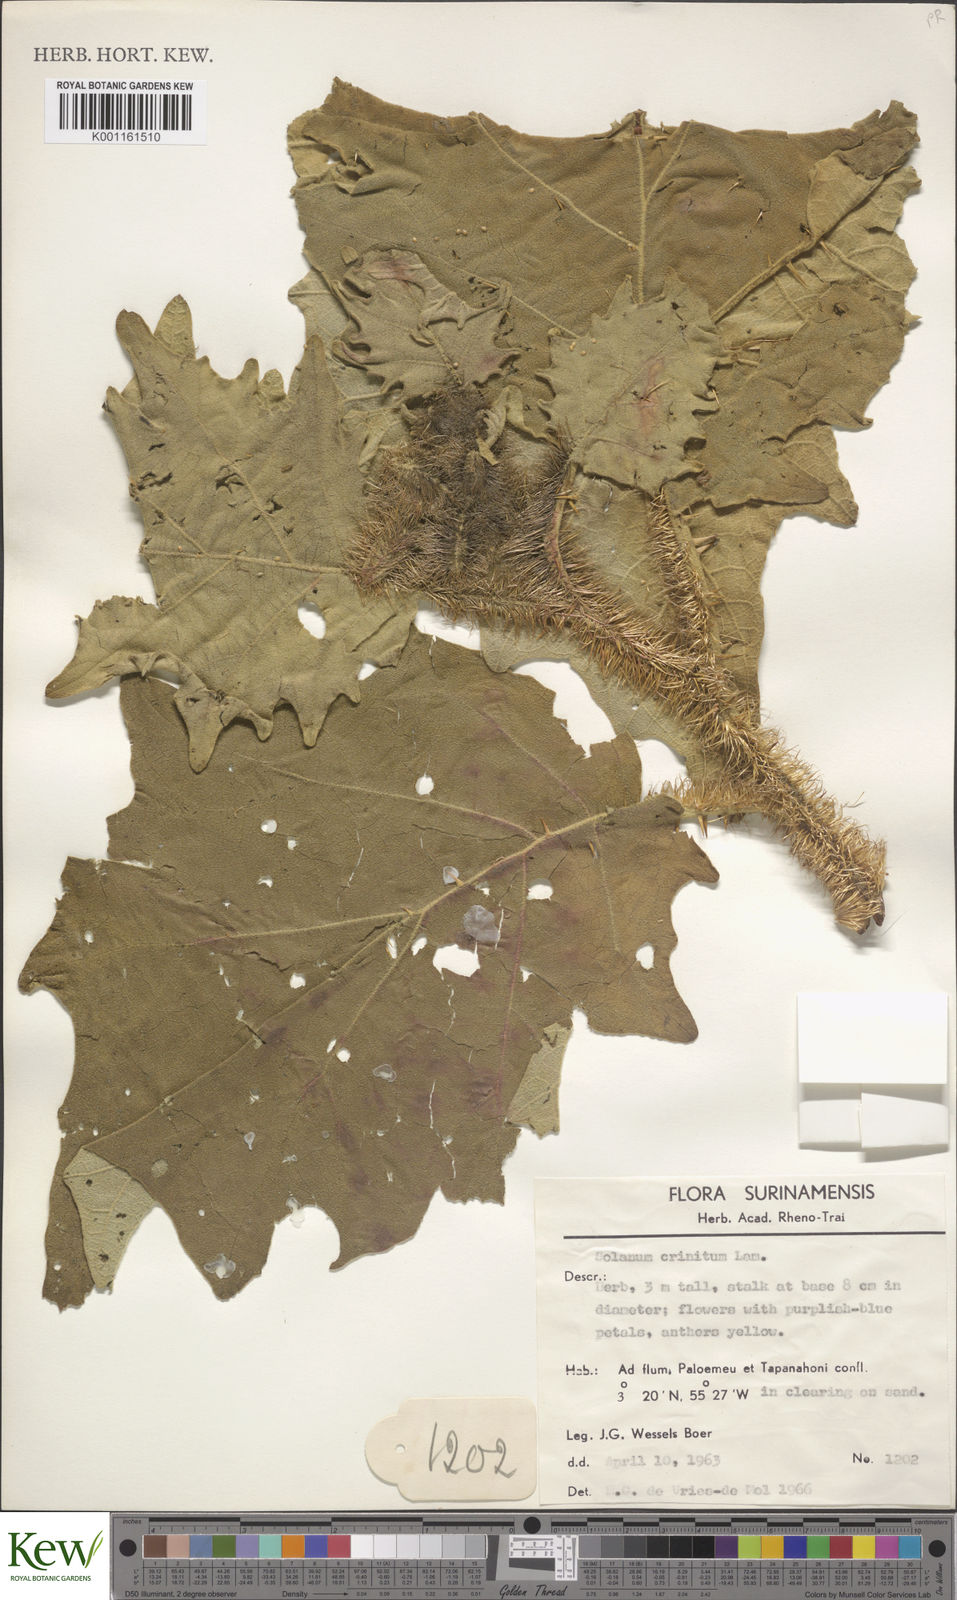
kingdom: Plantae
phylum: Tracheophyta
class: Magnoliopsida
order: Solanales
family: Solanaceae
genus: Solanum
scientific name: Solanum crinitum
